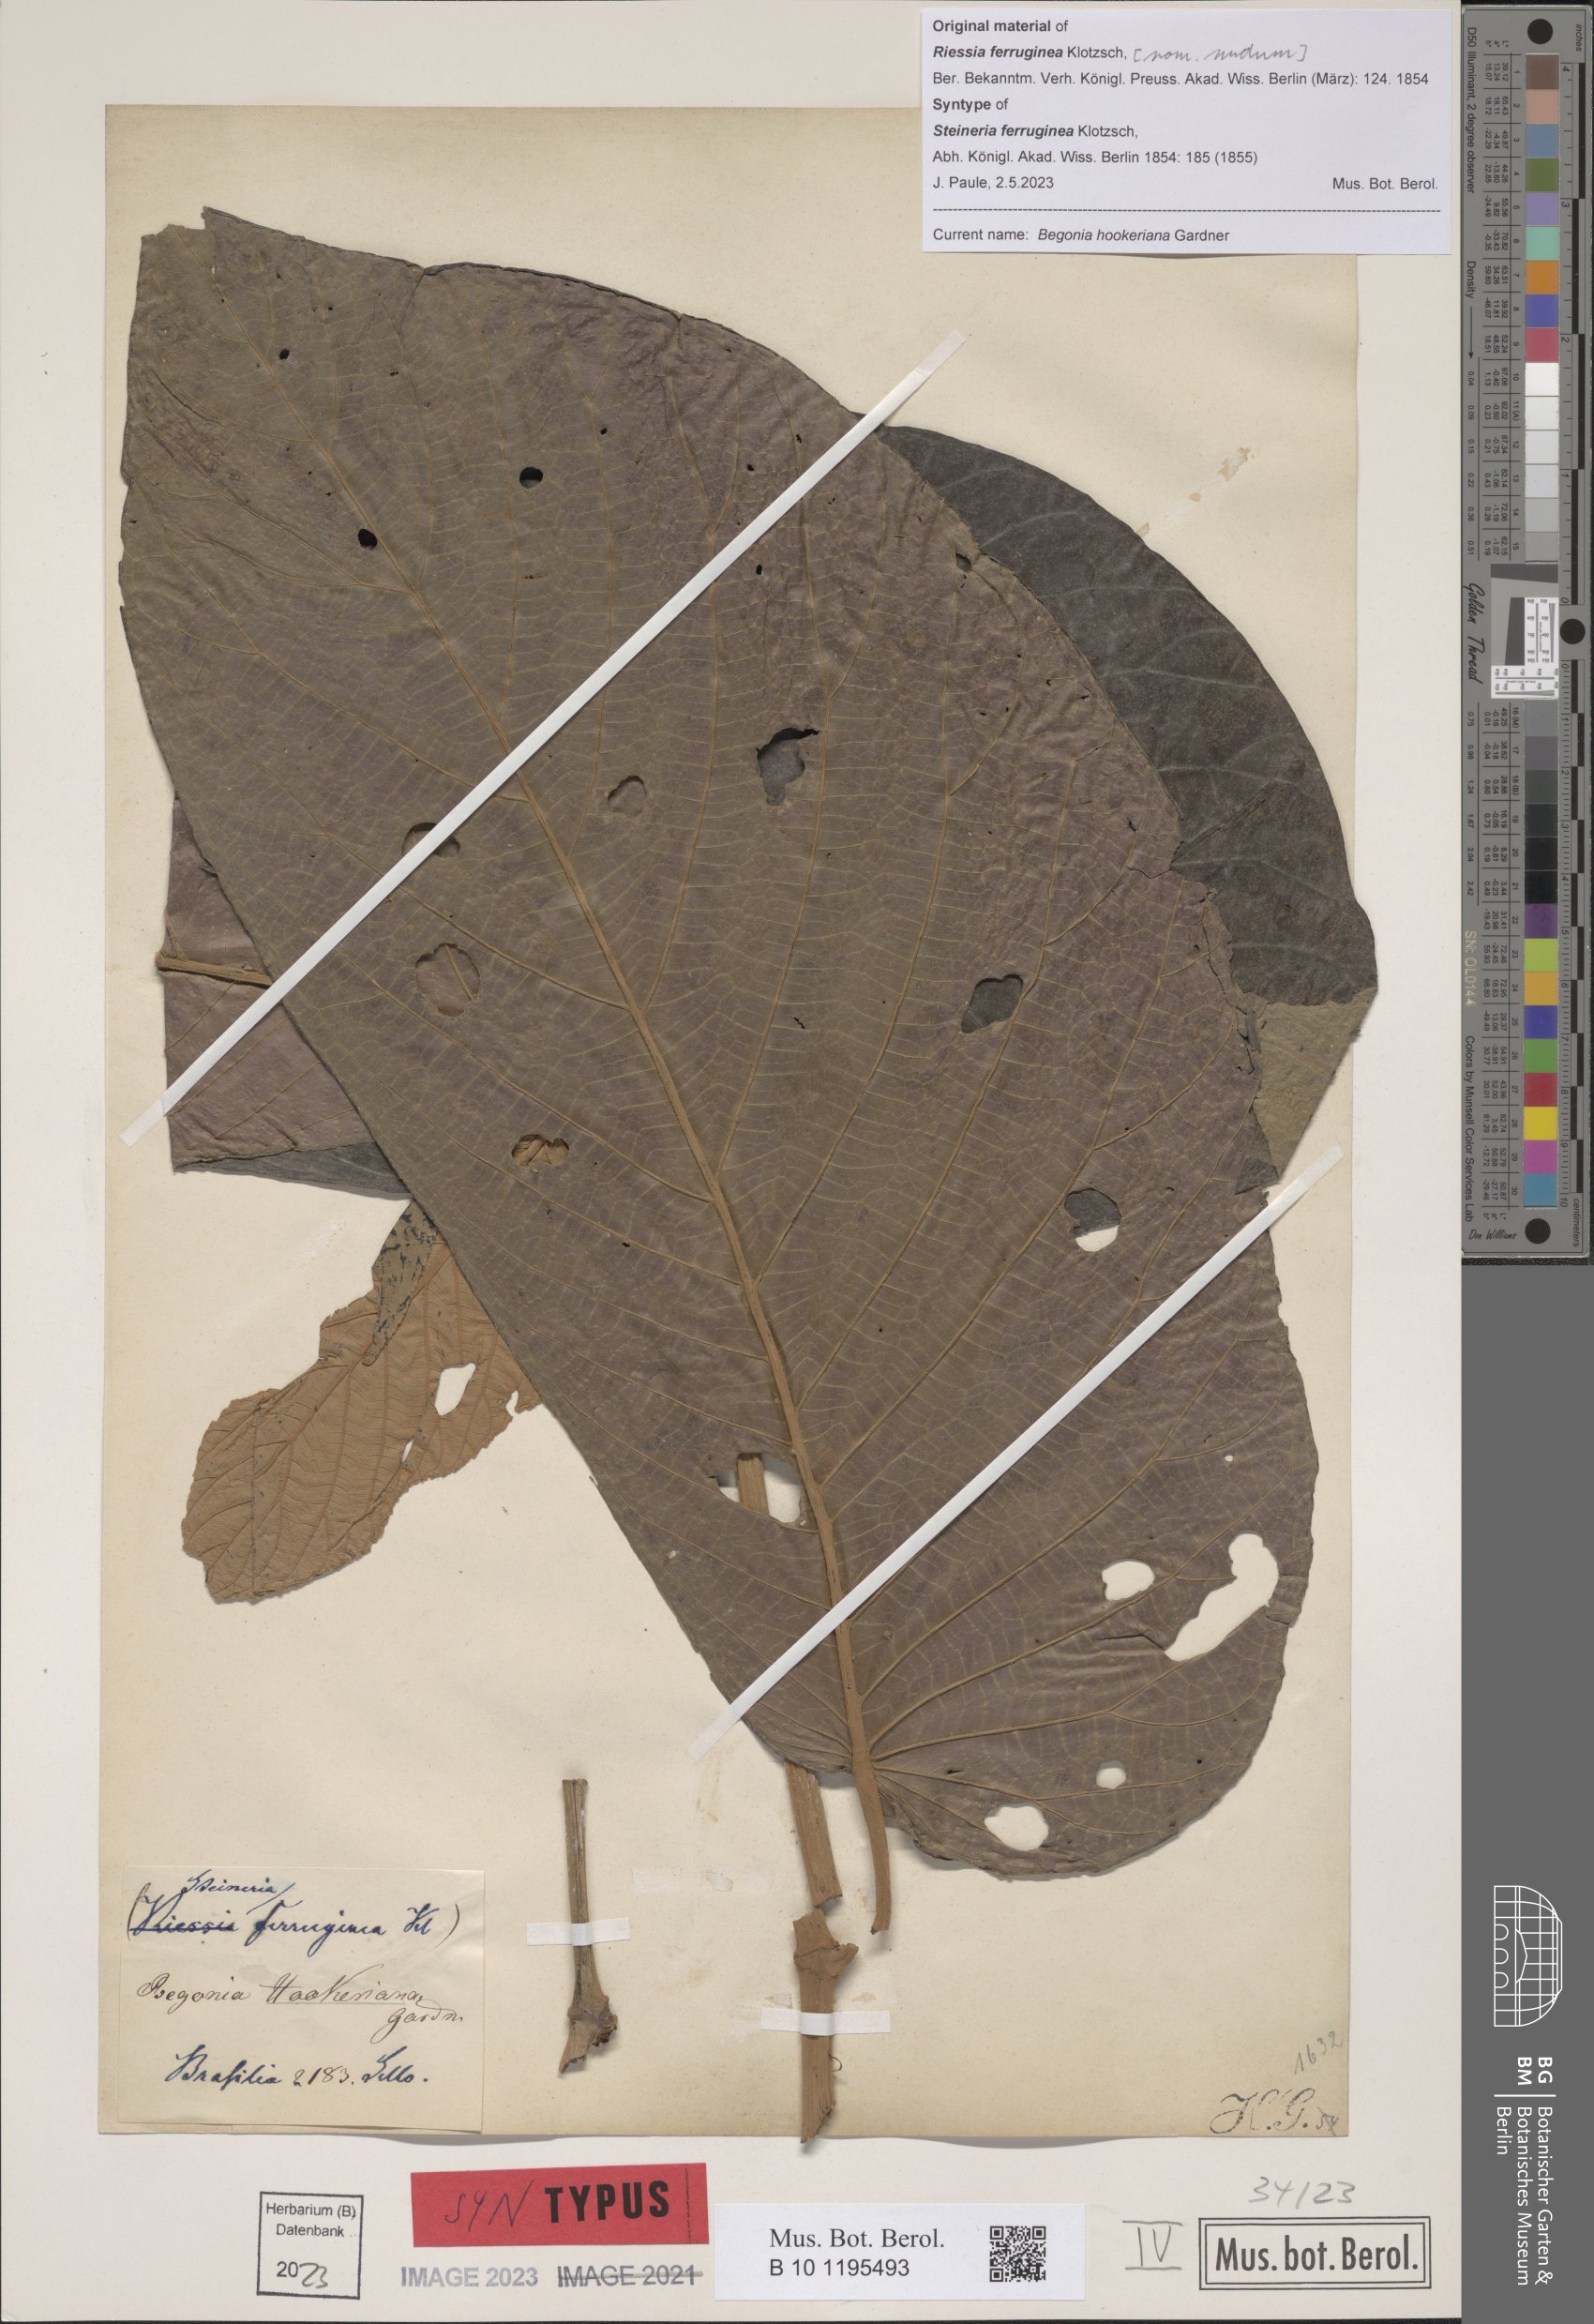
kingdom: Plantae
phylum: Tracheophyta
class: Magnoliopsida
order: Cucurbitales
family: Begoniaceae
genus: Begonia
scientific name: Begonia hookeriana
